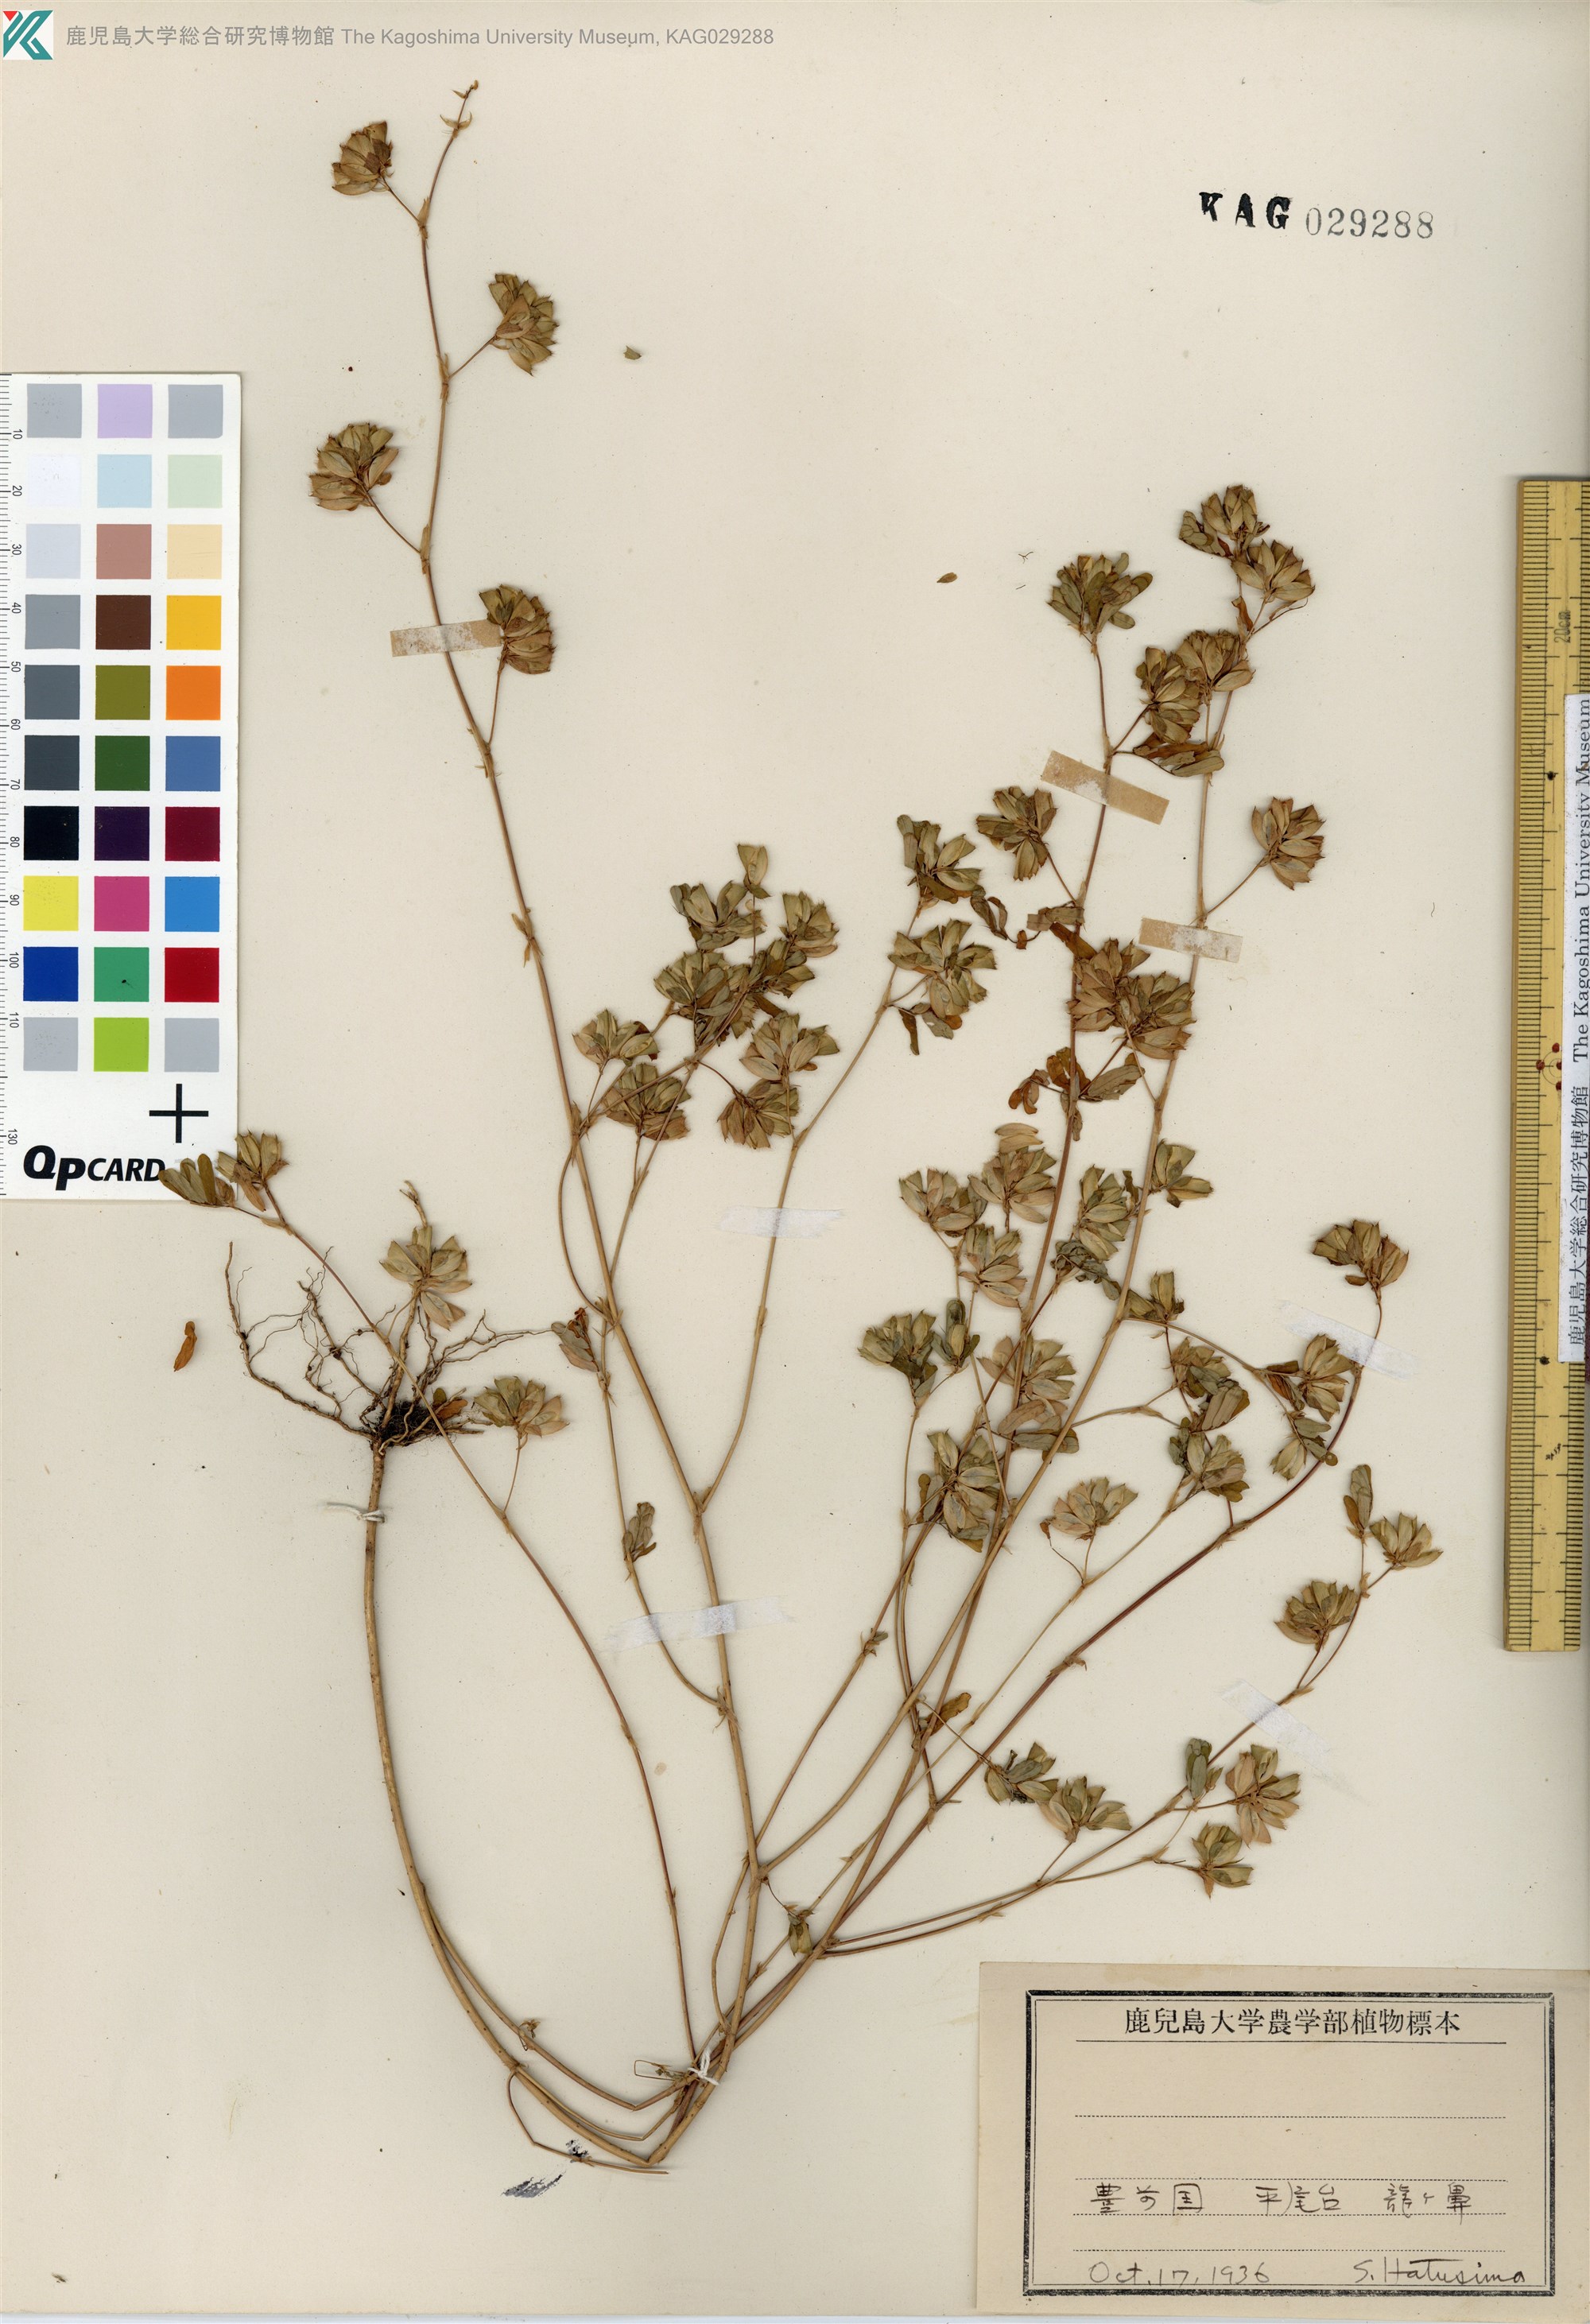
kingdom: Plantae
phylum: Tracheophyta
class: Magnoliopsida
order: Fabales
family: Fabaceae
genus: Smithia
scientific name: Smithia ciliata
